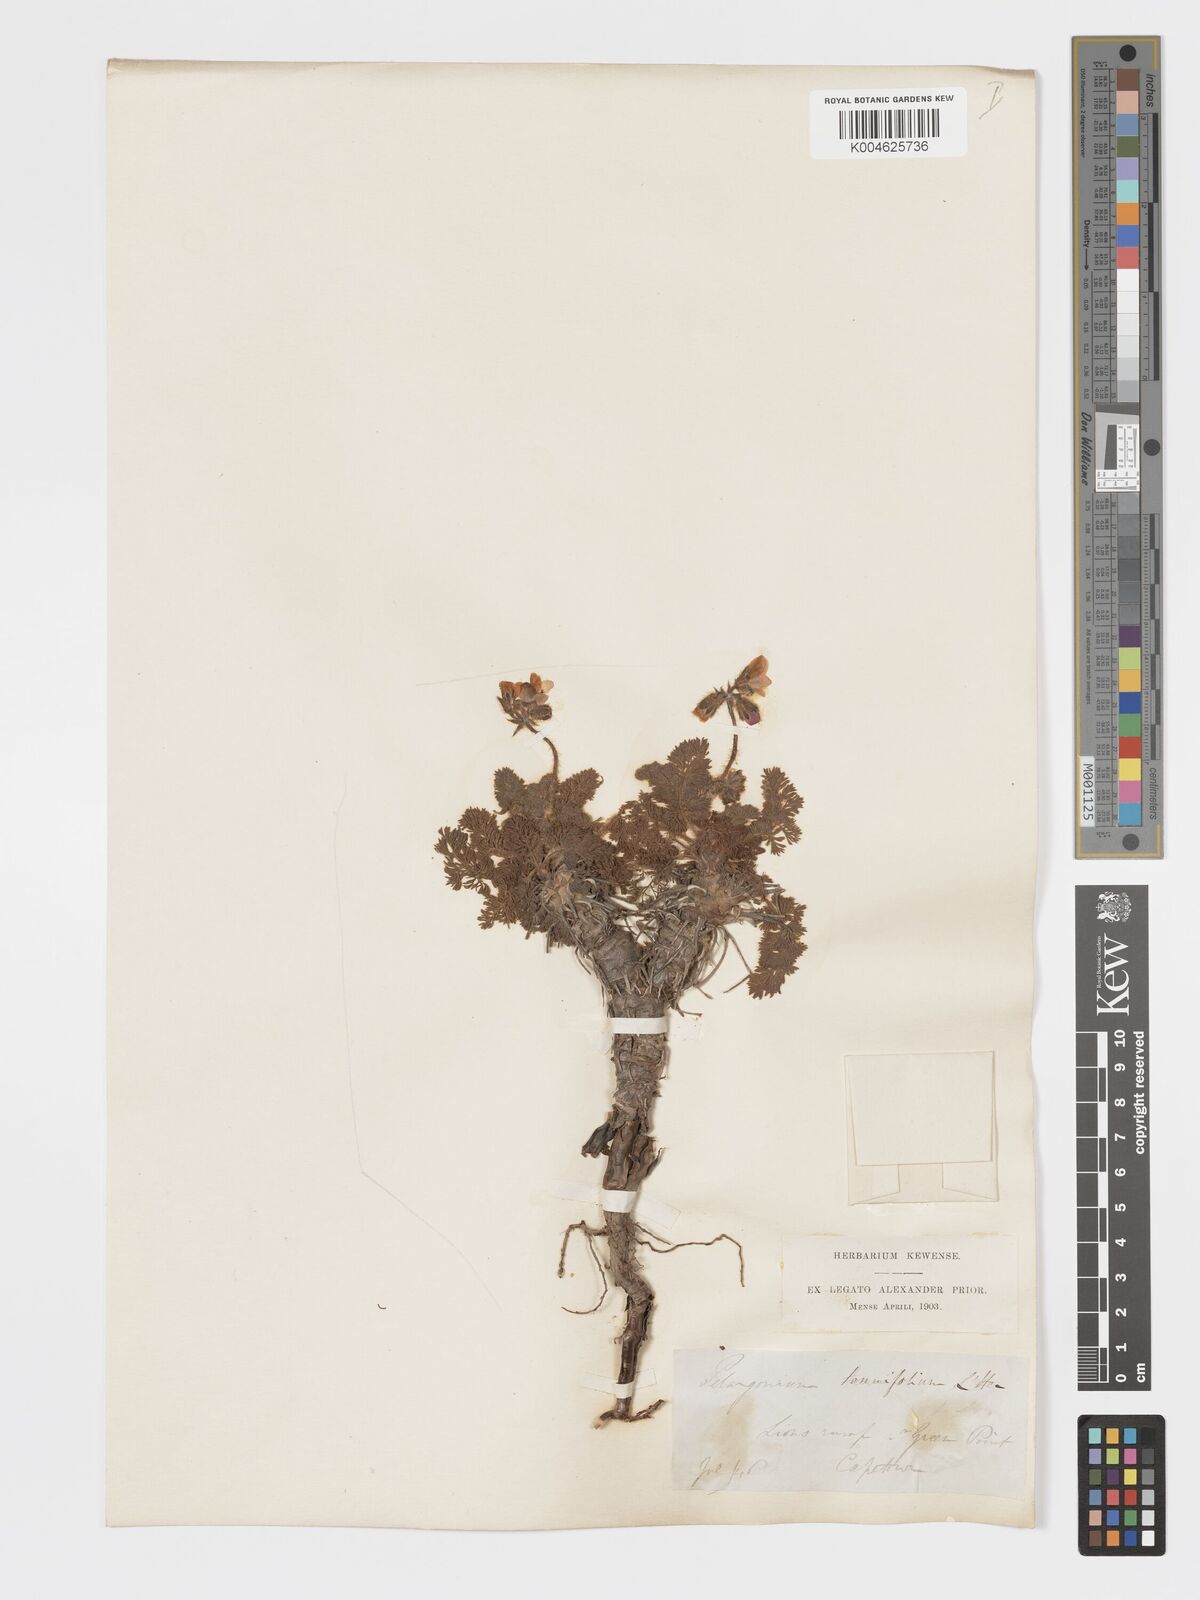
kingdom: Plantae
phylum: Tracheophyta
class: Magnoliopsida
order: Geraniales
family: Geraniaceae
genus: Pelargonium
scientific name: Pelargonium
